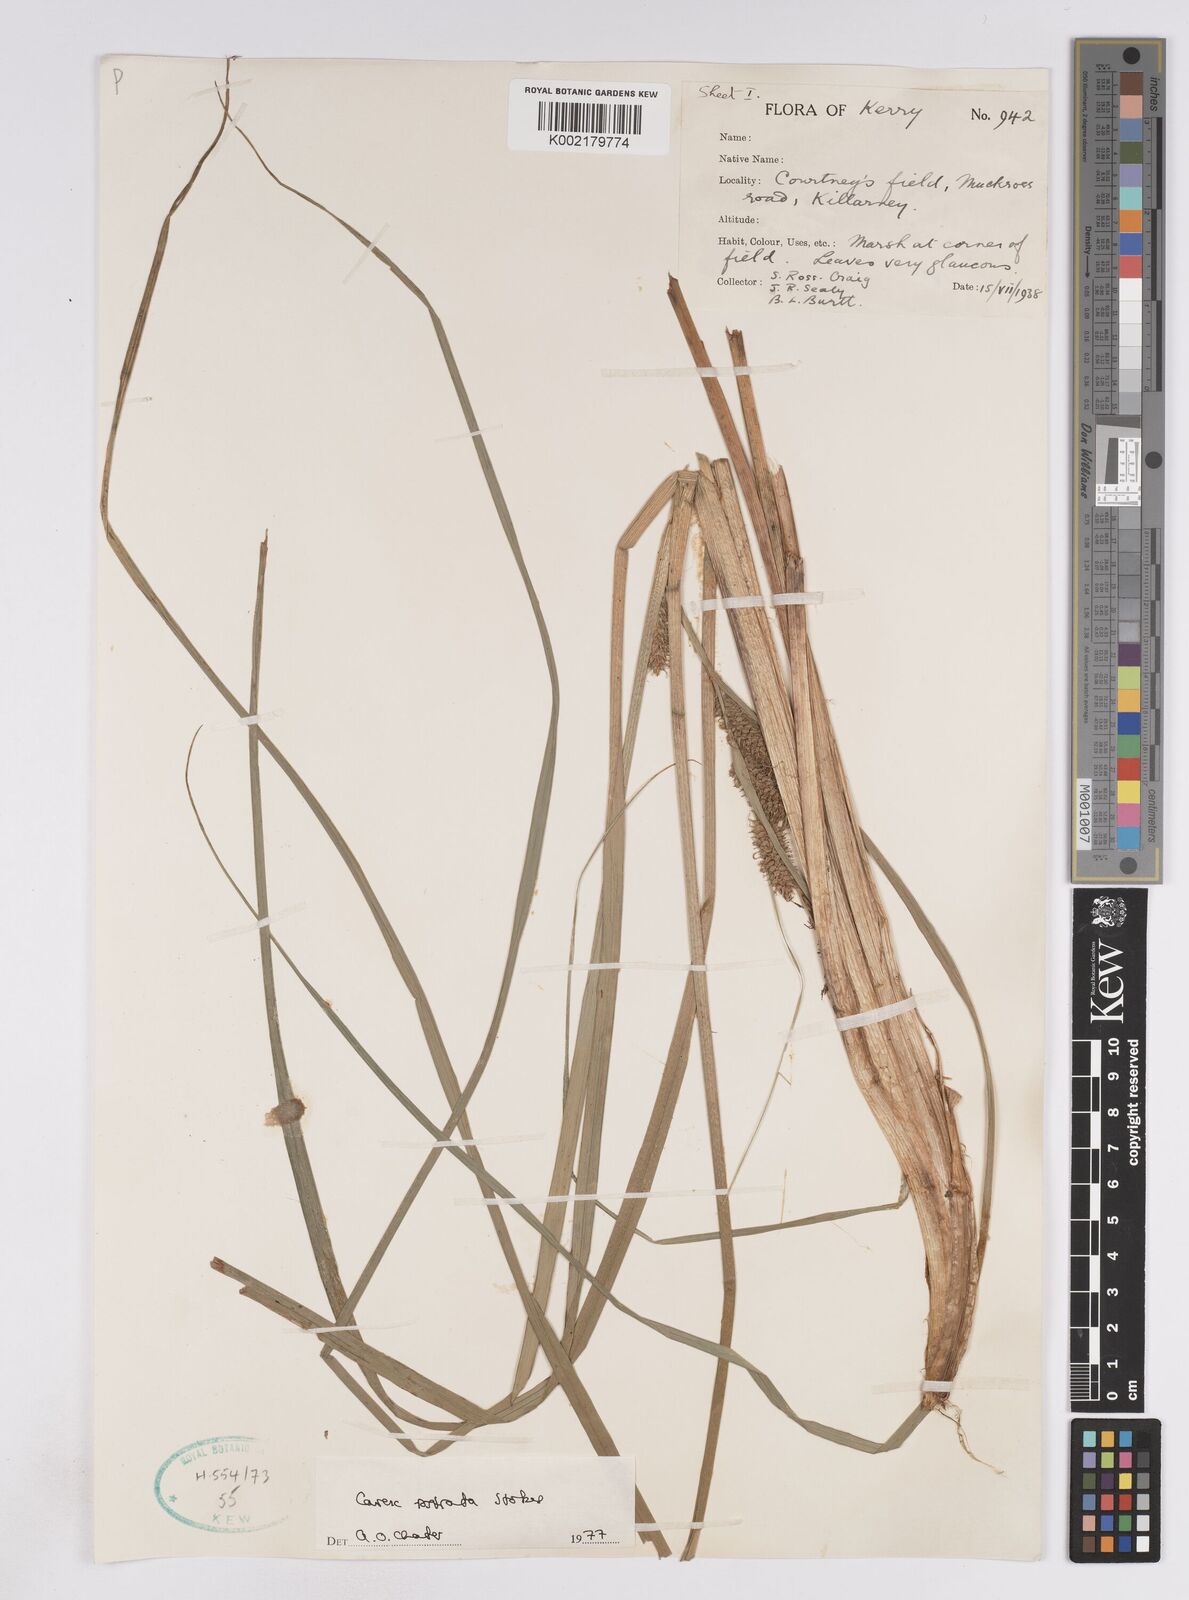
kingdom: Plantae
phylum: Tracheophyta
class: Liliopsida
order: Poales
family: Cyperaceae
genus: Carex
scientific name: Carex rostrata
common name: Bottle sedge
